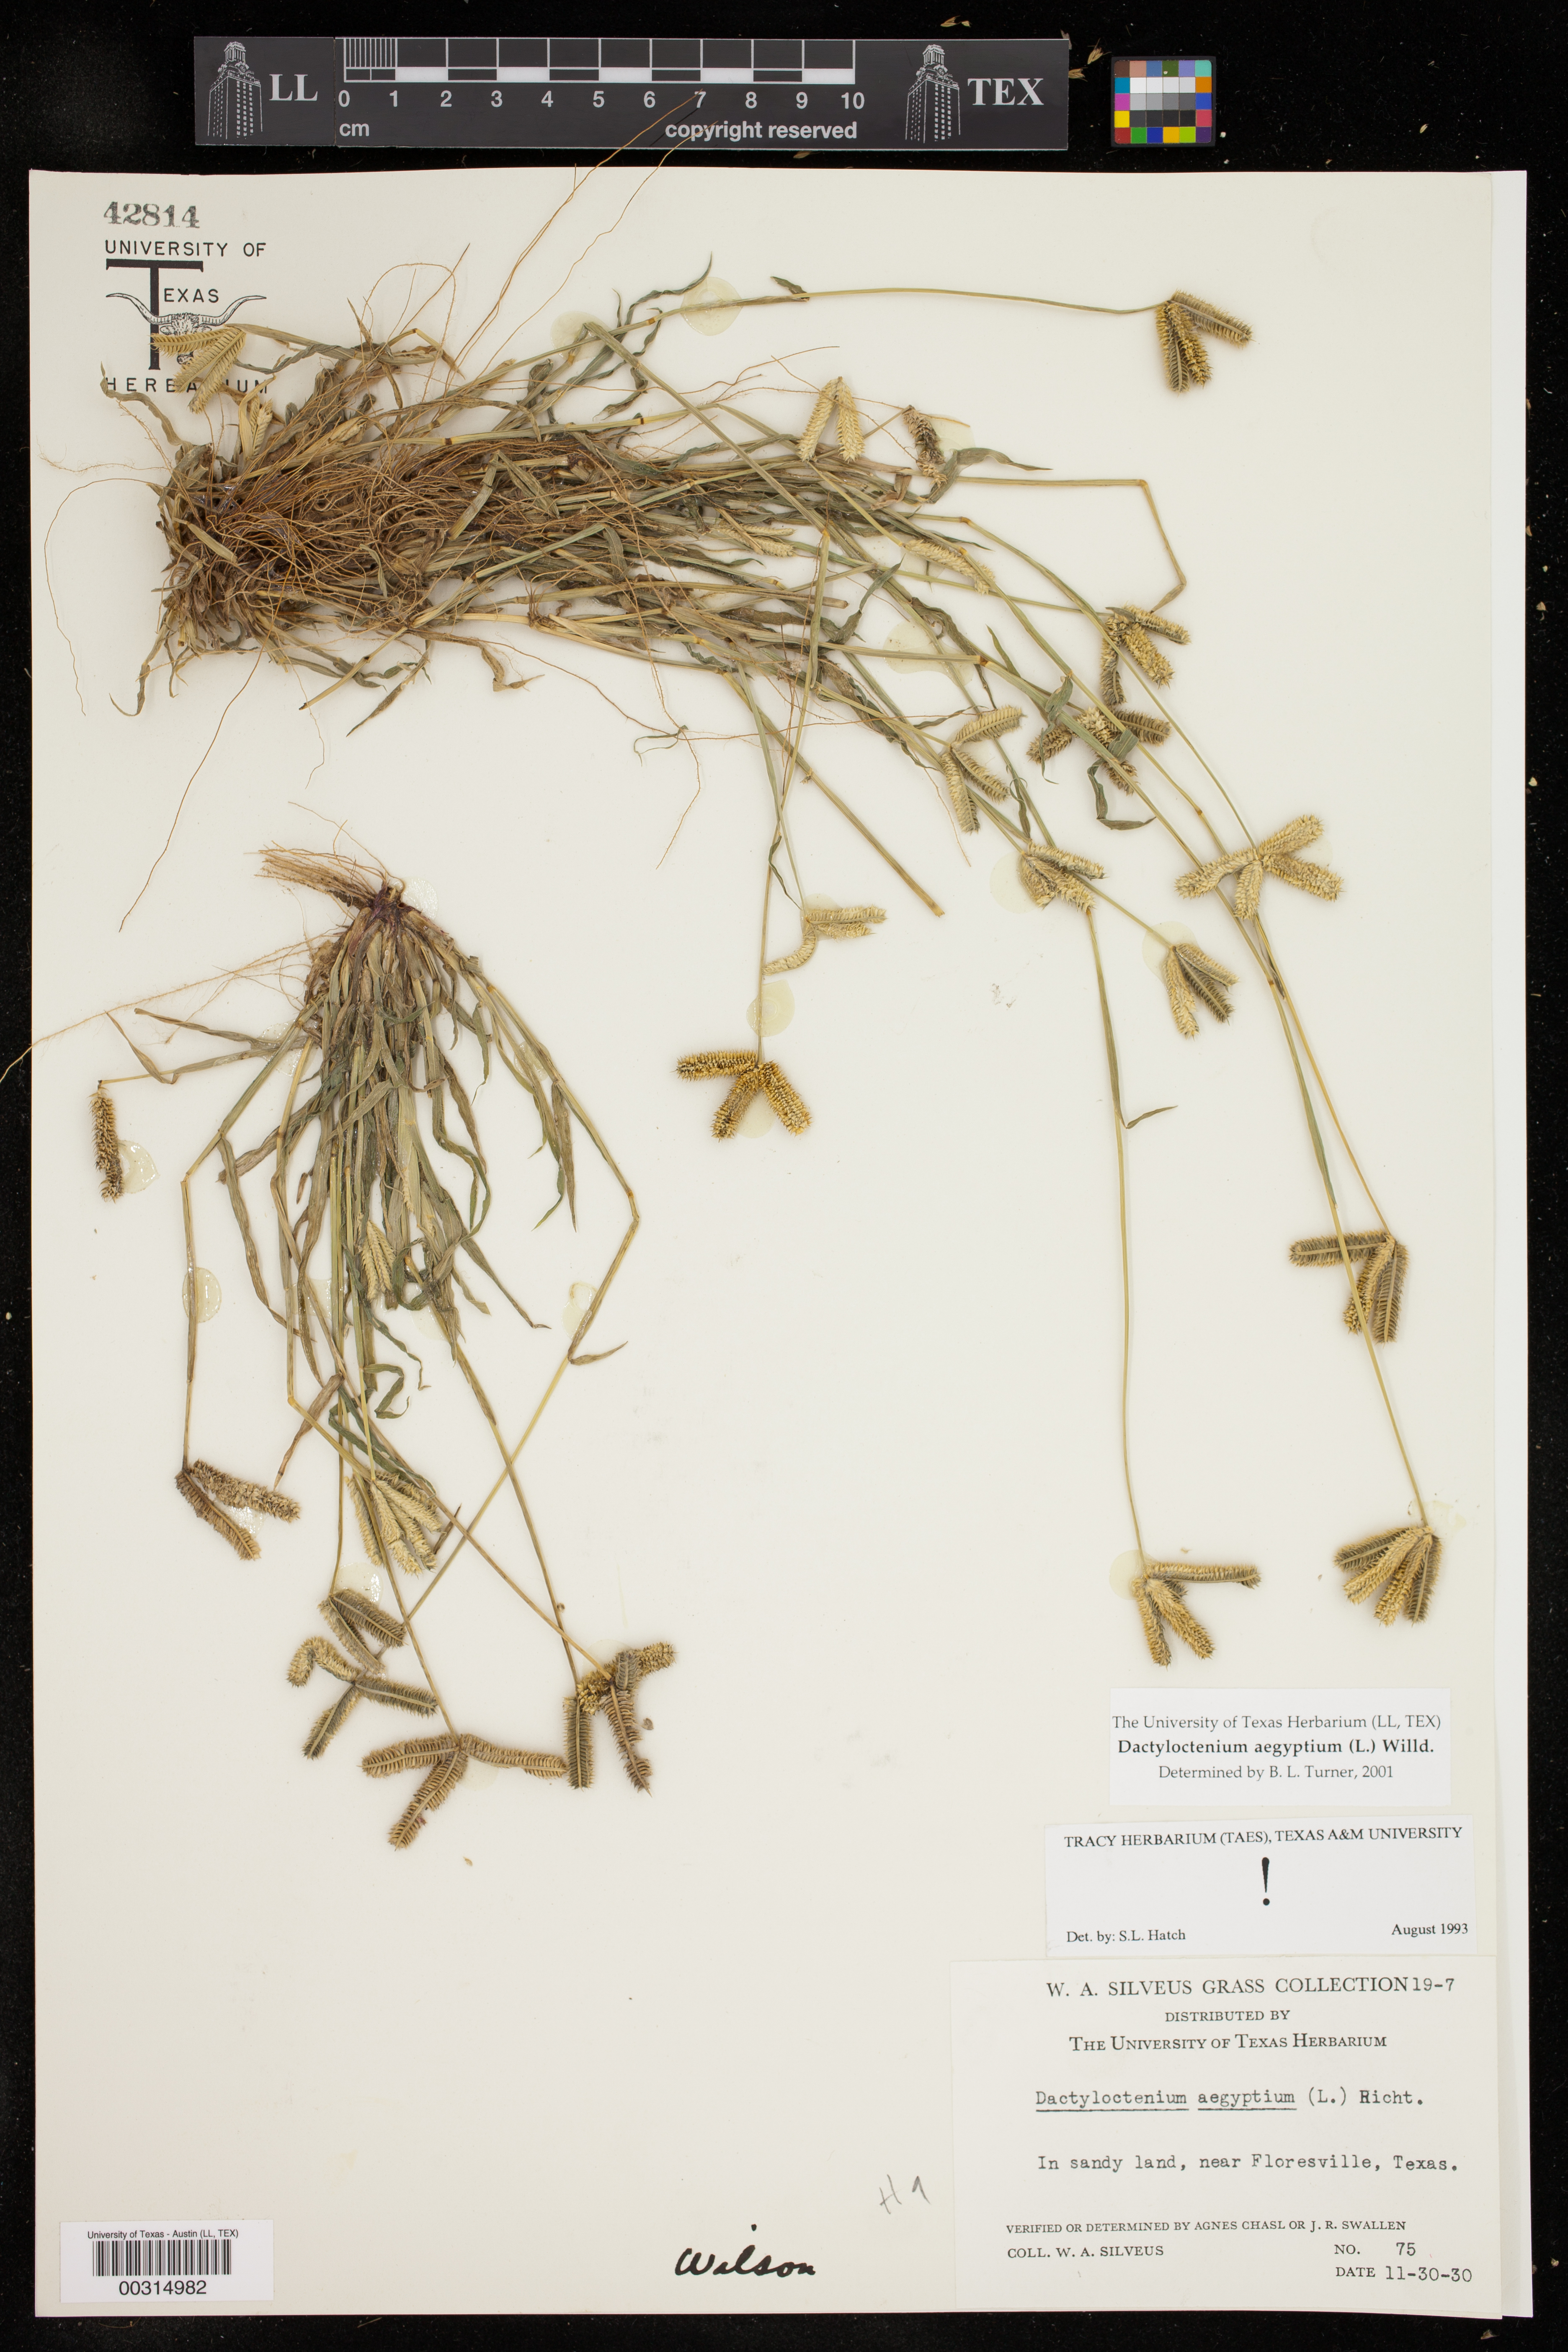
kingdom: Plantae
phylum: Tracheophyta
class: Liliopsida
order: Poales
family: Poaceae
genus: Dactyloctenium
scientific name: Dactyloctenium aegyptium
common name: Egyptian grass
